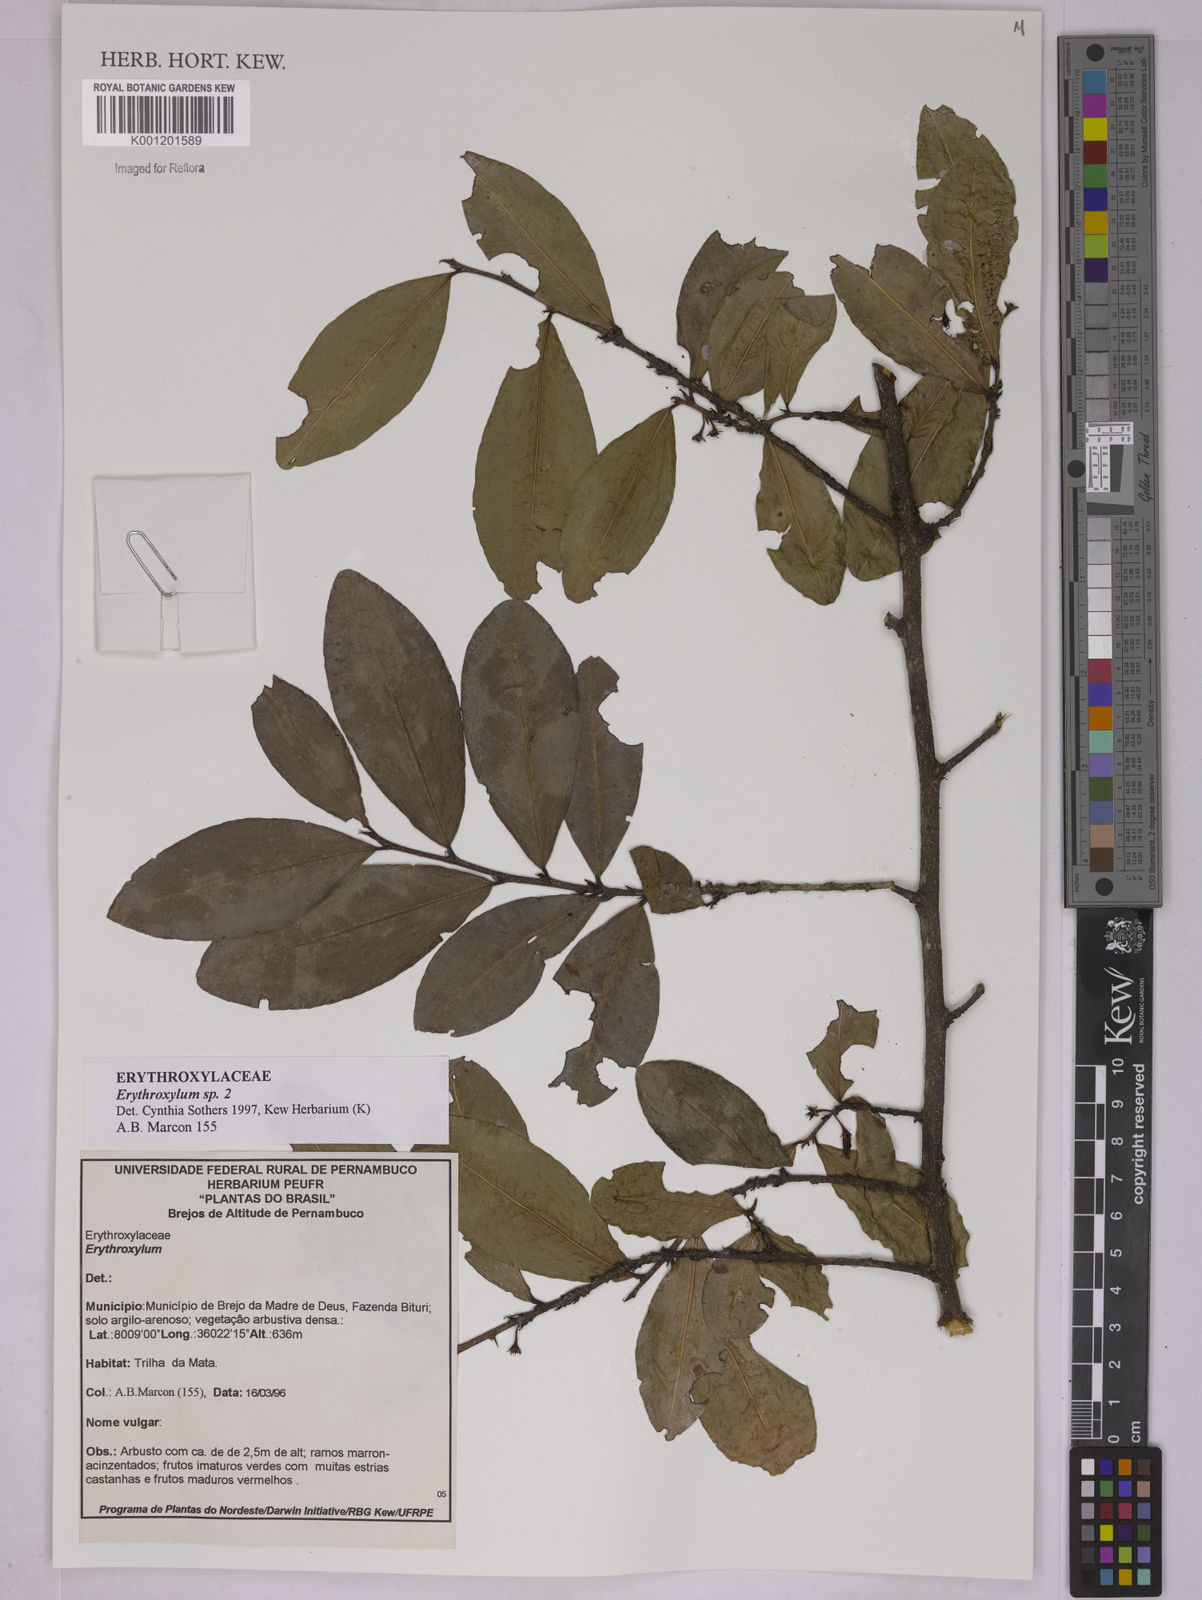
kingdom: Plantae
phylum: Tracheophyta
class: Magnoliopsida
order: Malpighiales
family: Erythroxylaceae
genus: Erythroxylum
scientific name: Erythroxylum
